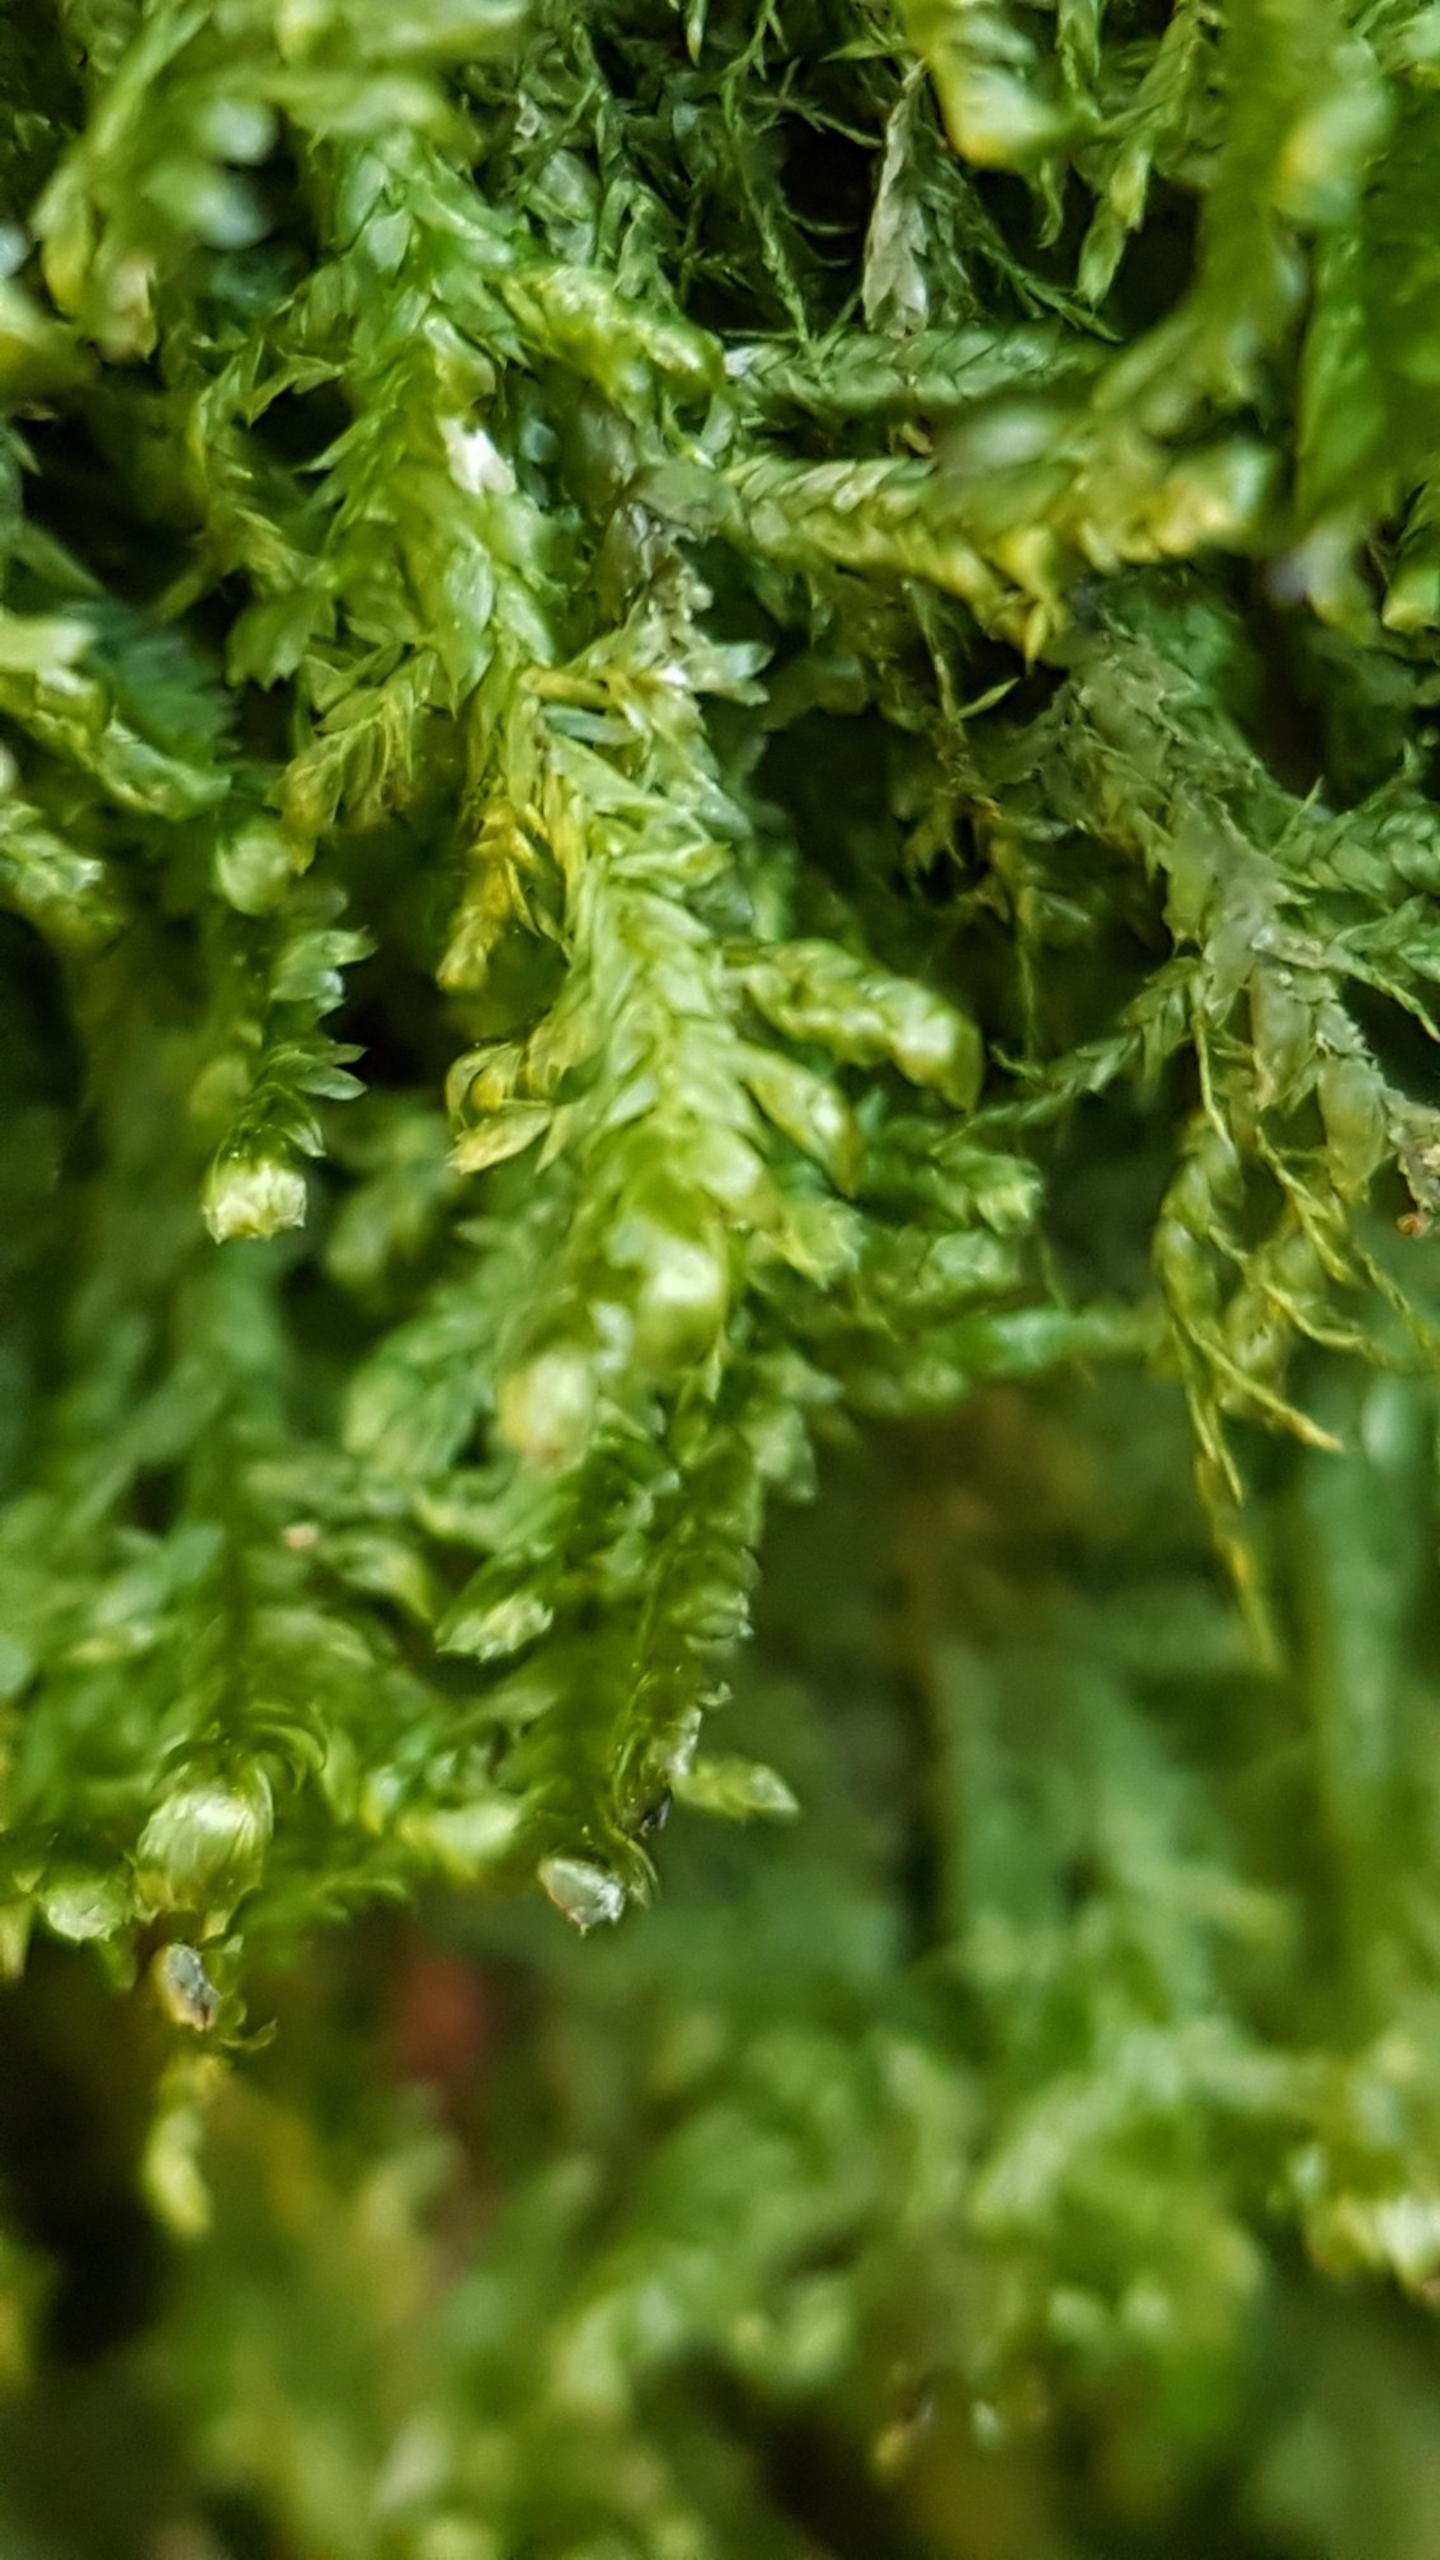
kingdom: Plantae
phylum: Bryophyta
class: Bryopsida
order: Hypnales
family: Neckeraceae
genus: Alleniella
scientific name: Alleniella complanata
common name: Almindelig fladmos
